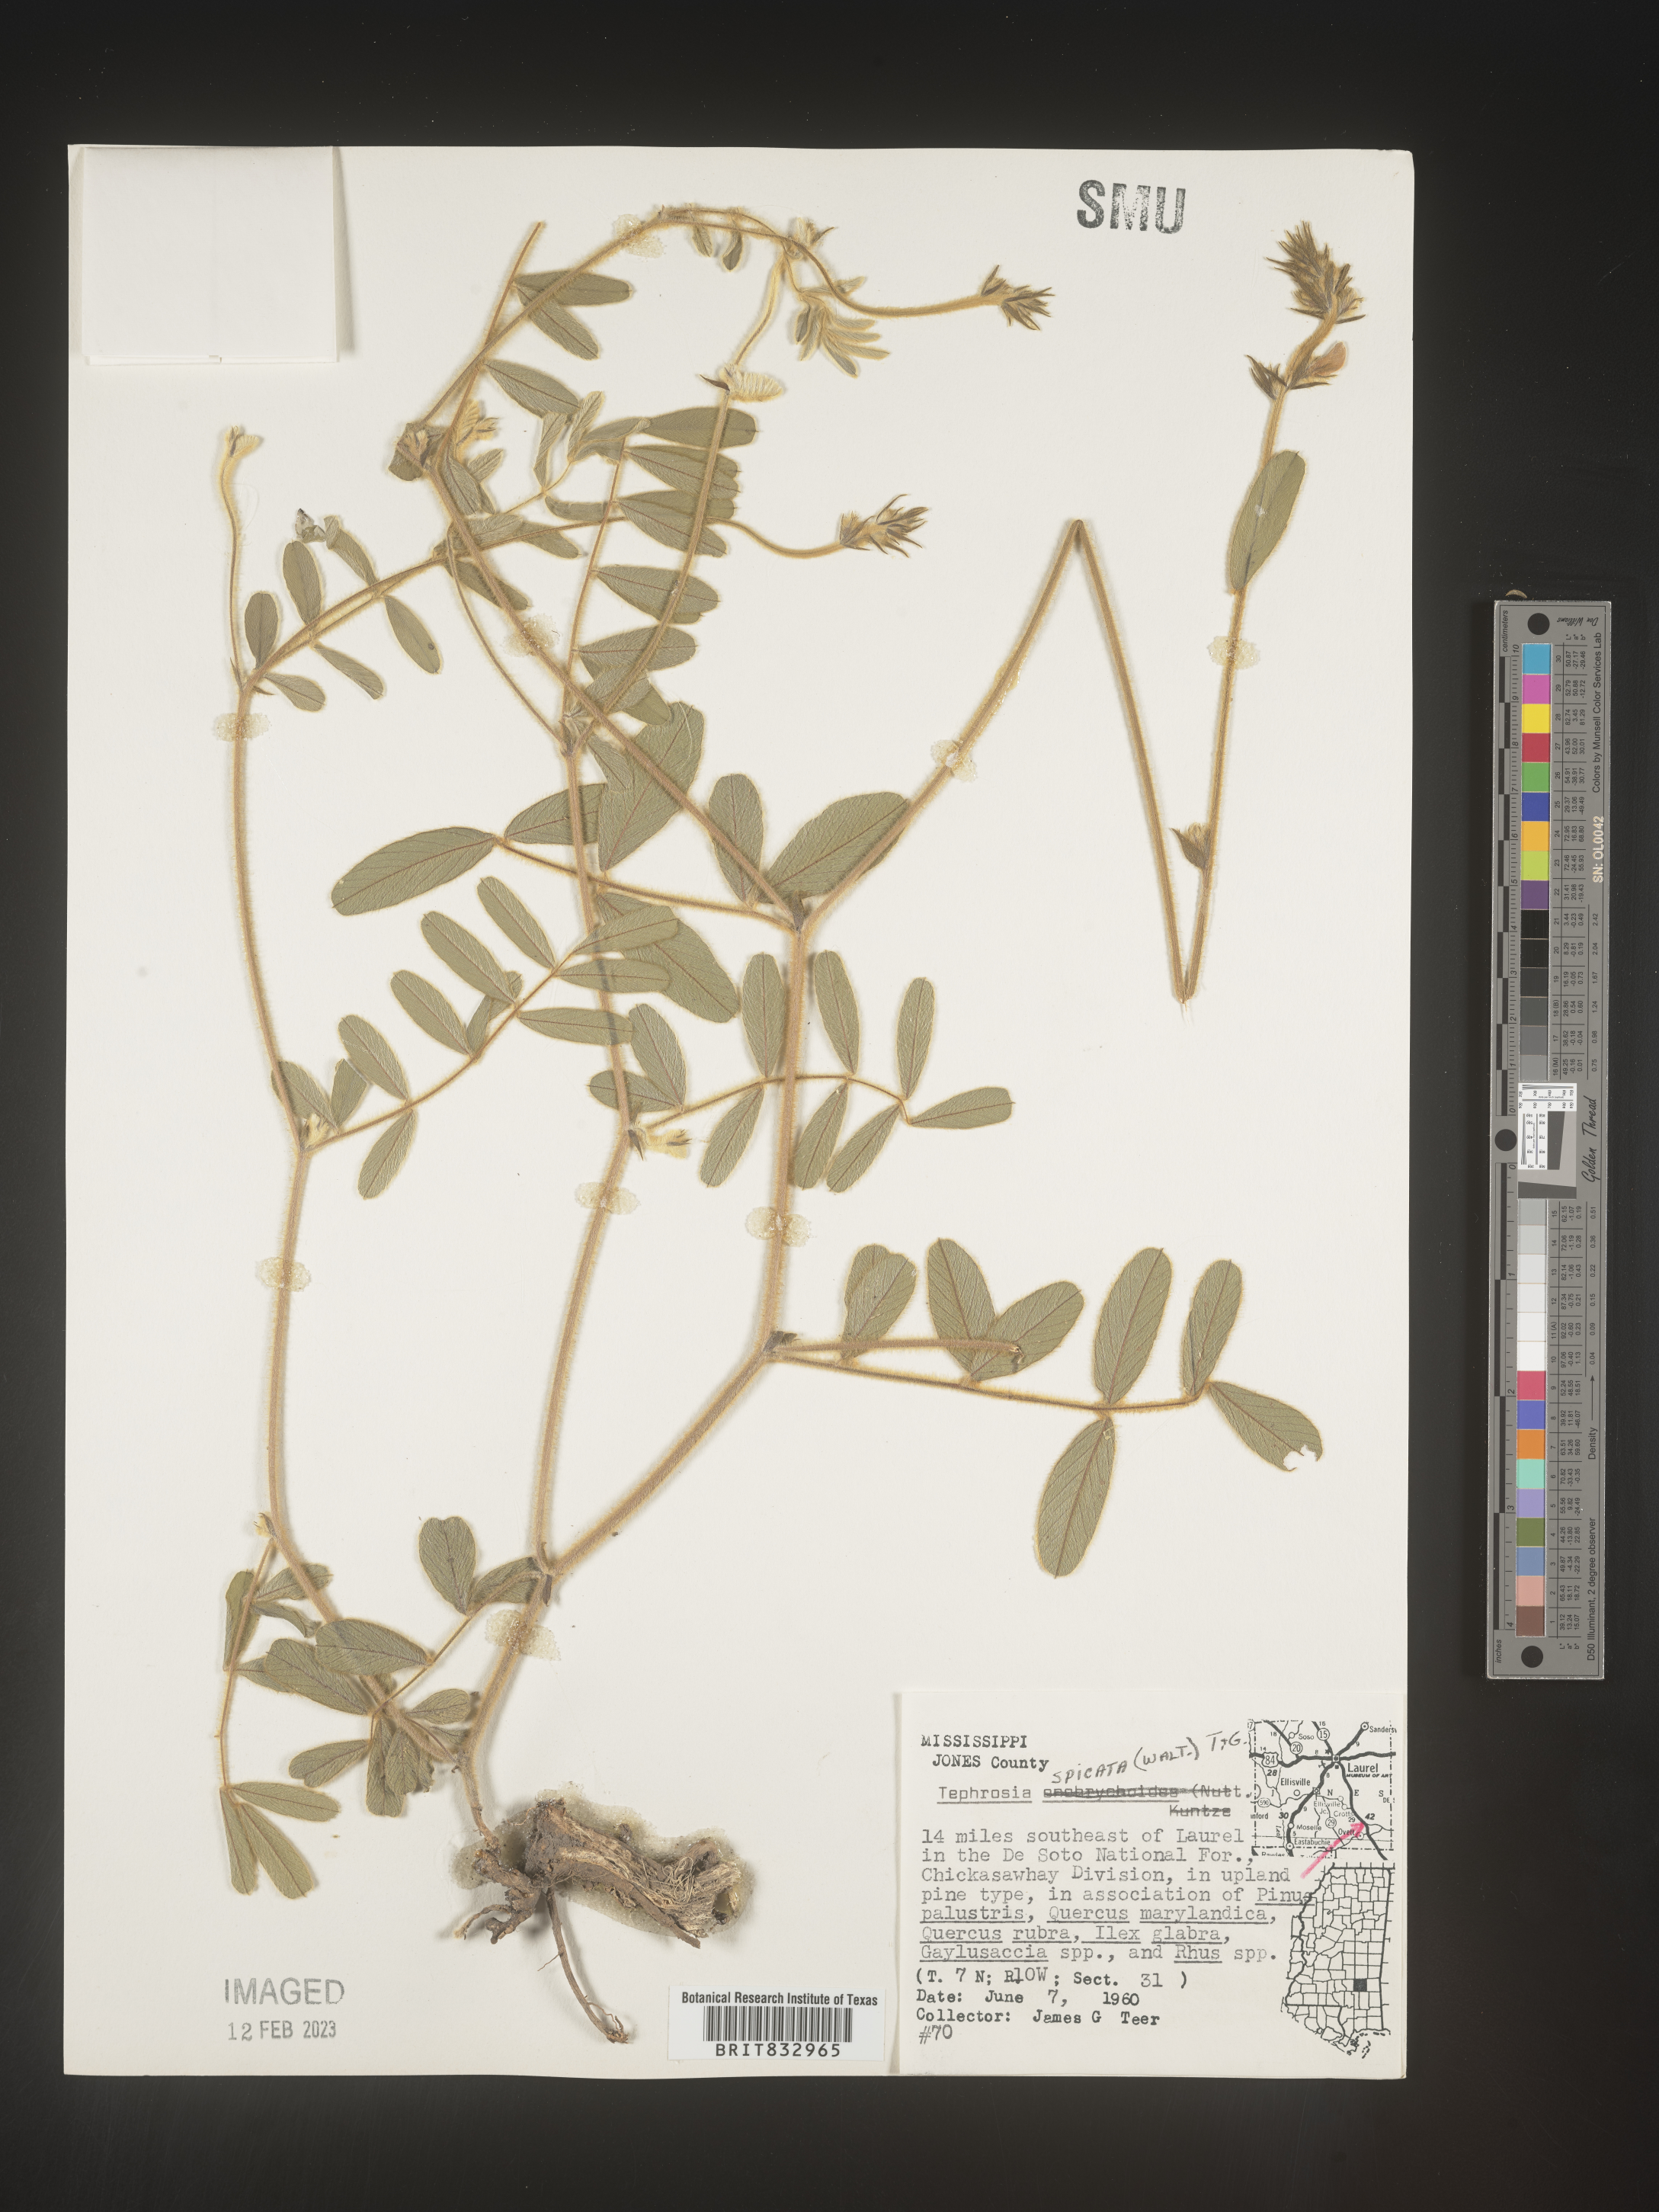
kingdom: Plantae
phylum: Tracheophyta
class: Magnoliopsida
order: Fabales
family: Fabaceae
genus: Tephrosia
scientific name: Tephrosia spicata
